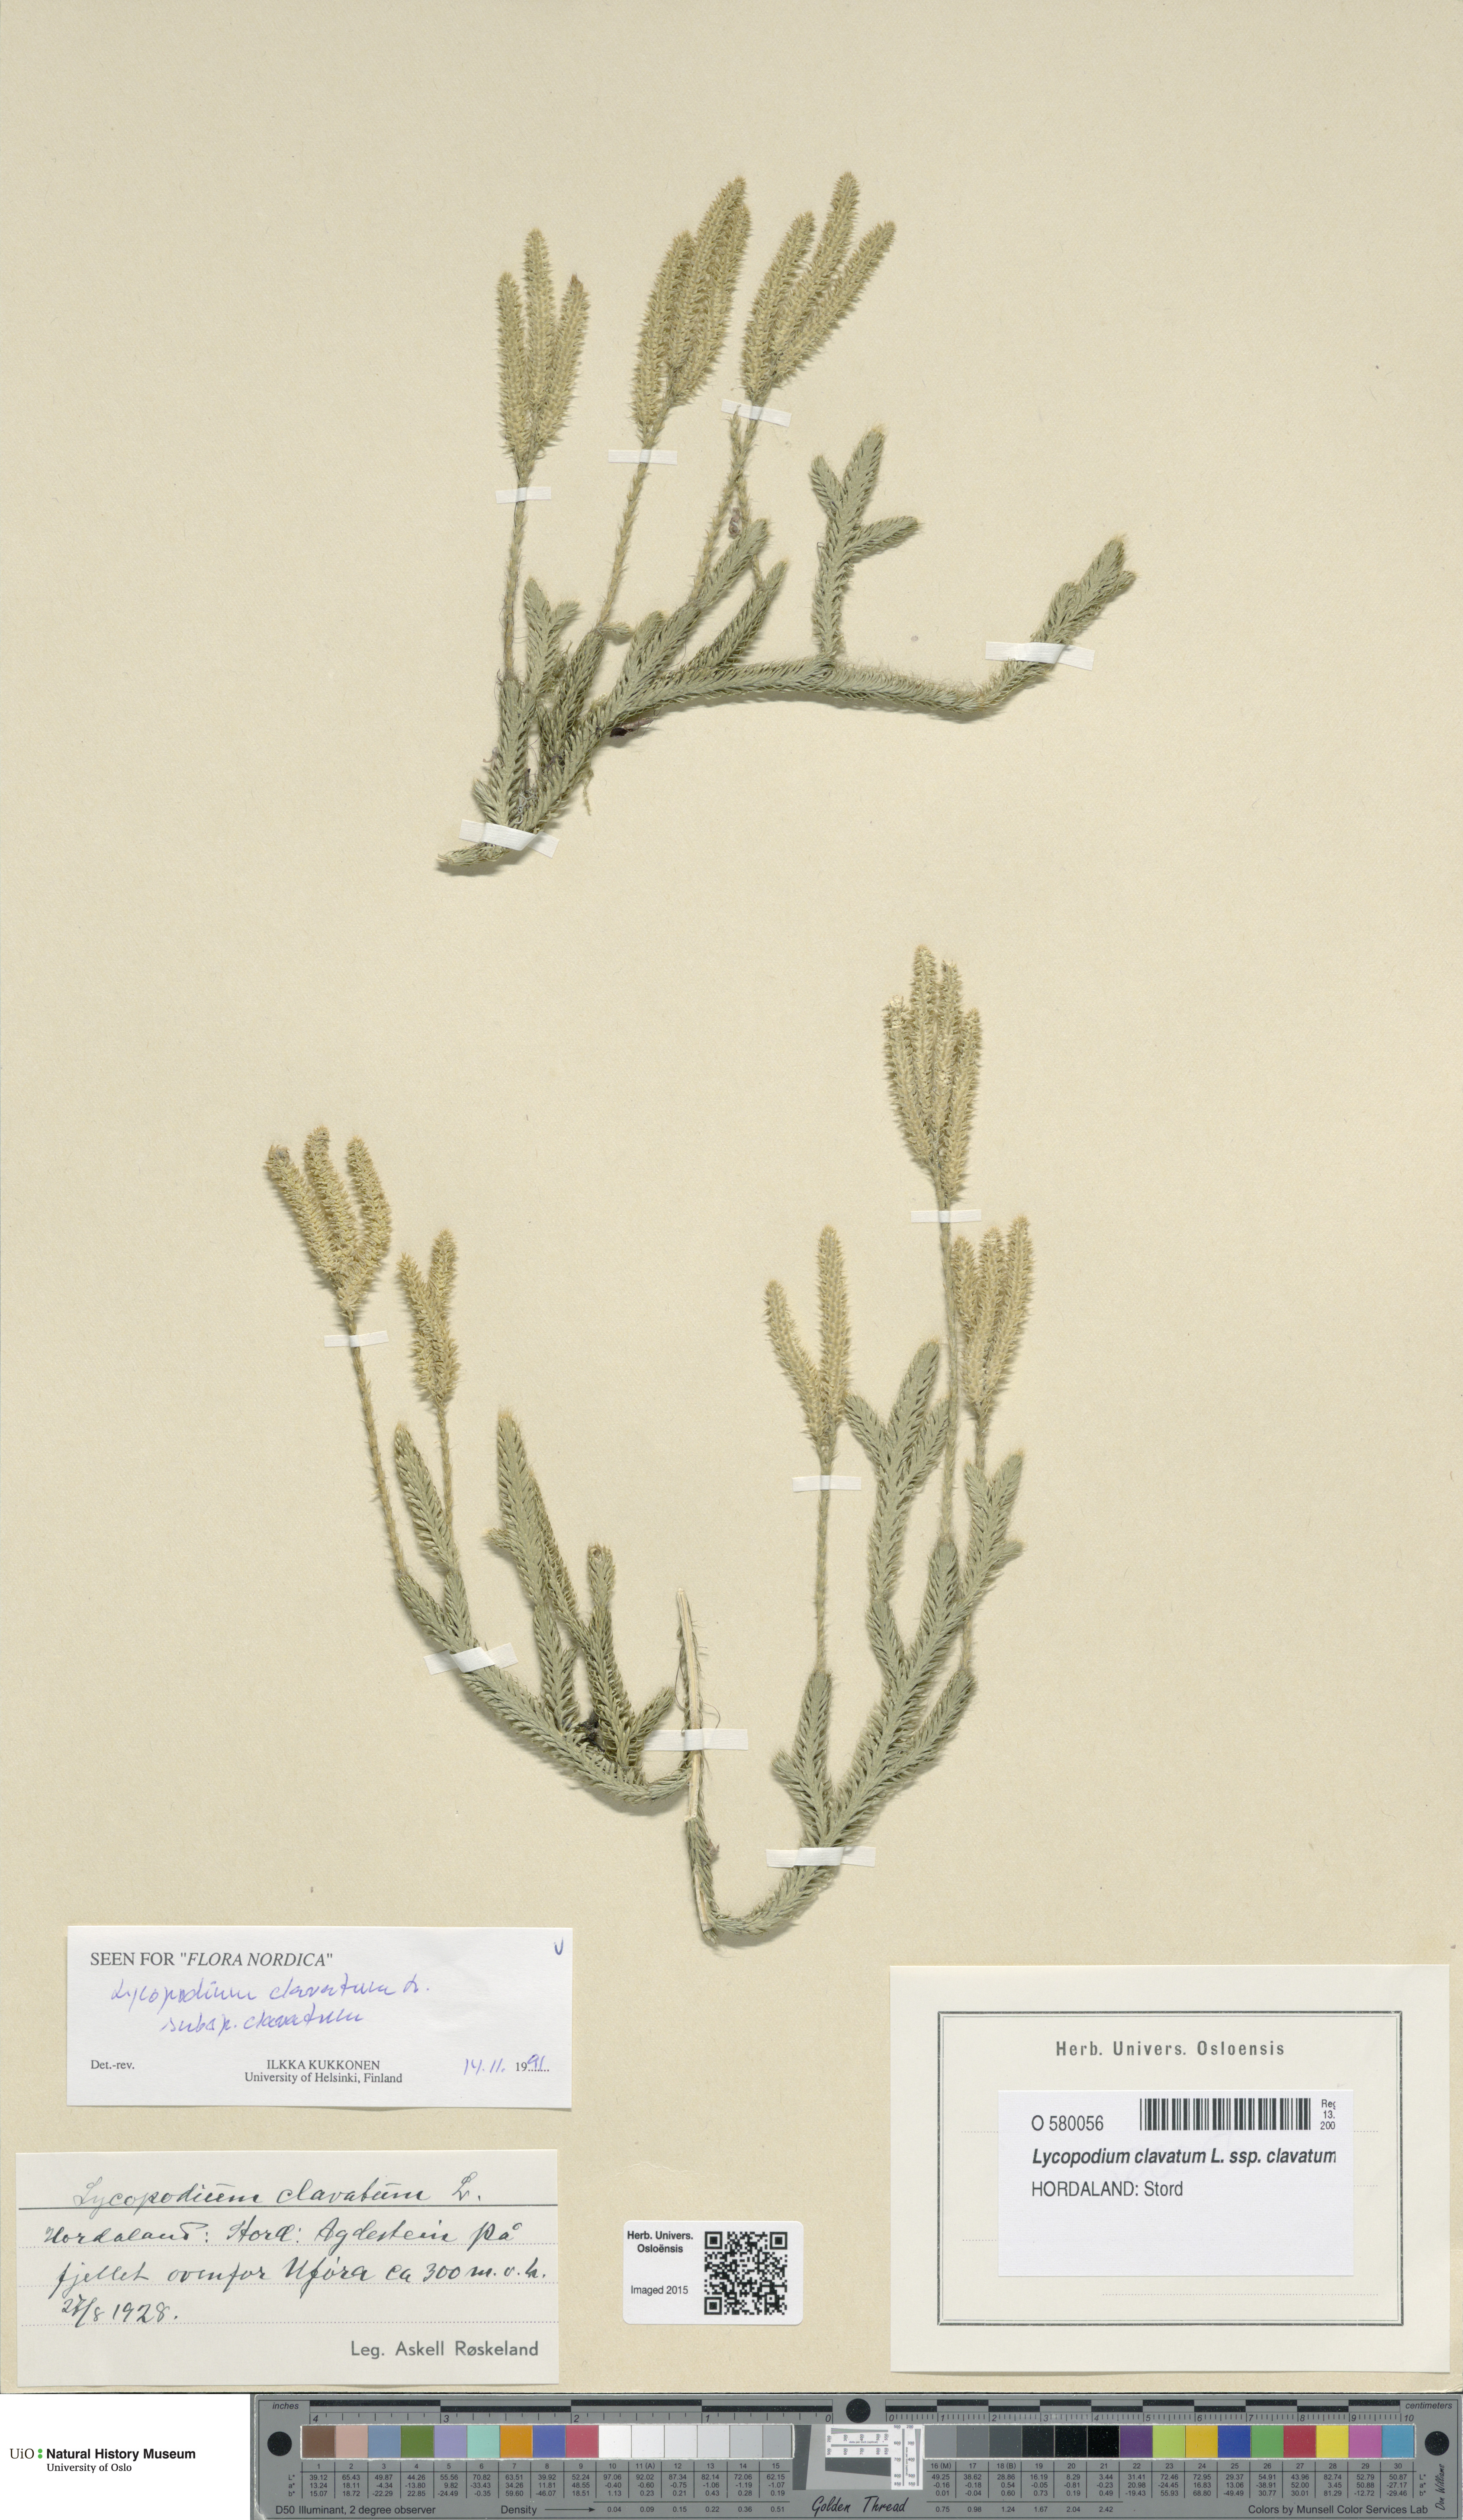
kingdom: Plantae
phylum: Tracheophyta
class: Lycopodiopsida
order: Lycopodiales
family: Lycopodiaceae
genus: Lycopodium
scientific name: Lycopodium clavatum
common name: Stag's-horn clubmoss
